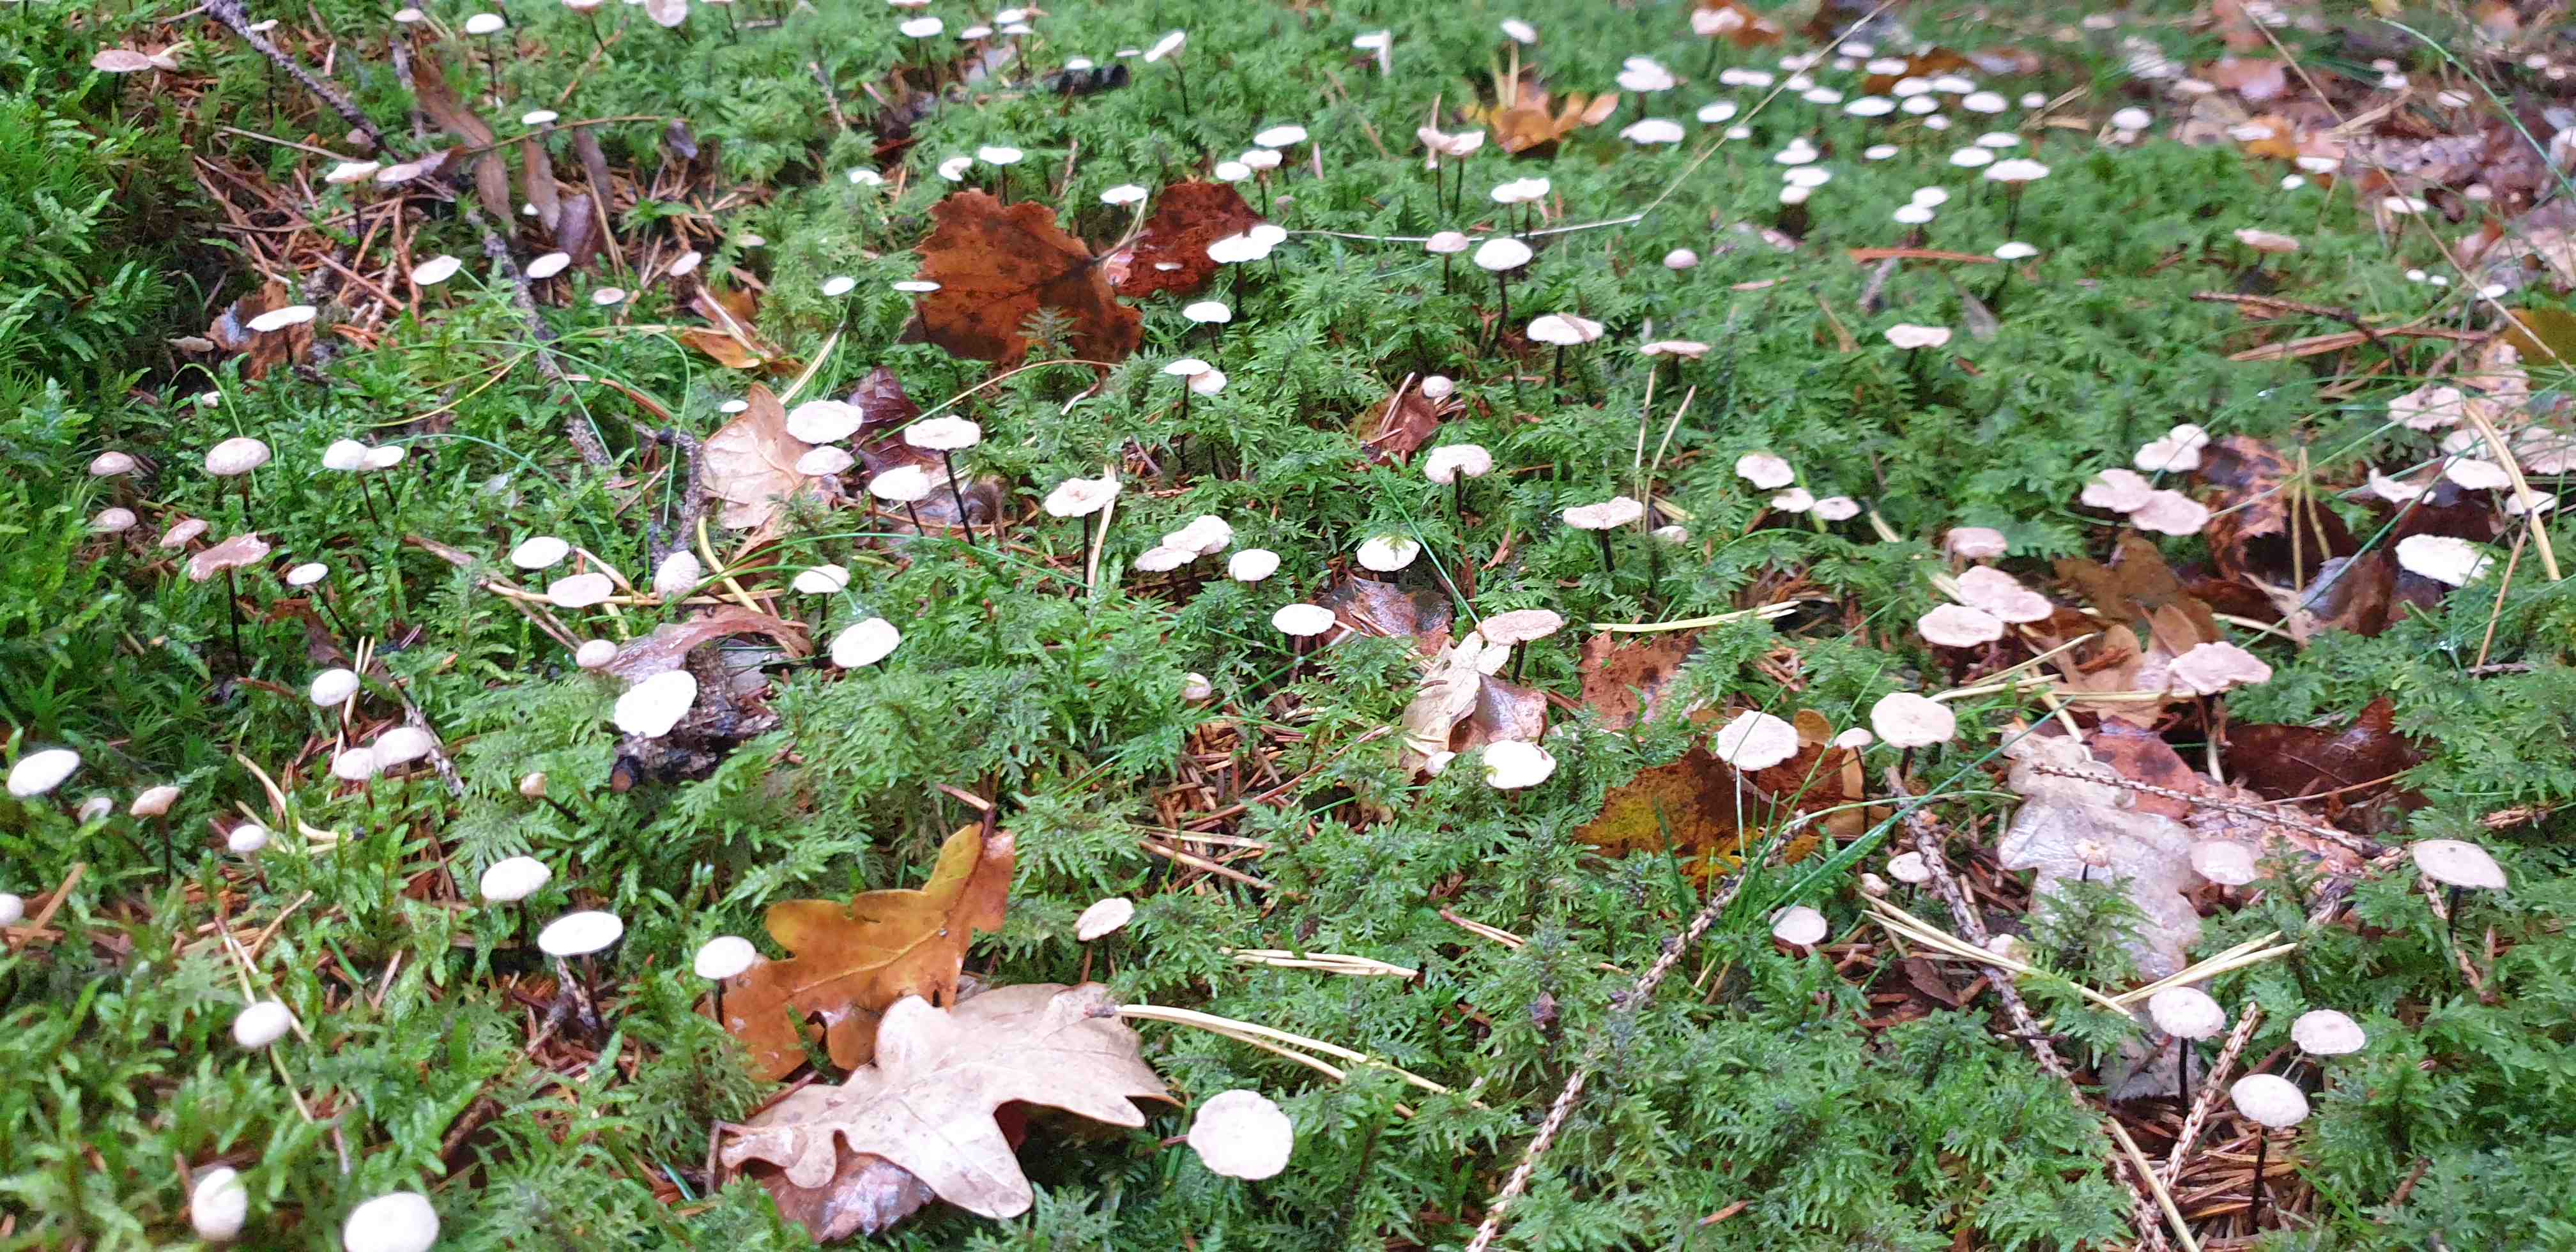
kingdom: Fungi
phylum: Basidiomycota
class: Agaricomycetes
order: Agaricales
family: Omphalotaceae
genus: Paragymnopus
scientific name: Paragymnopus perforans
